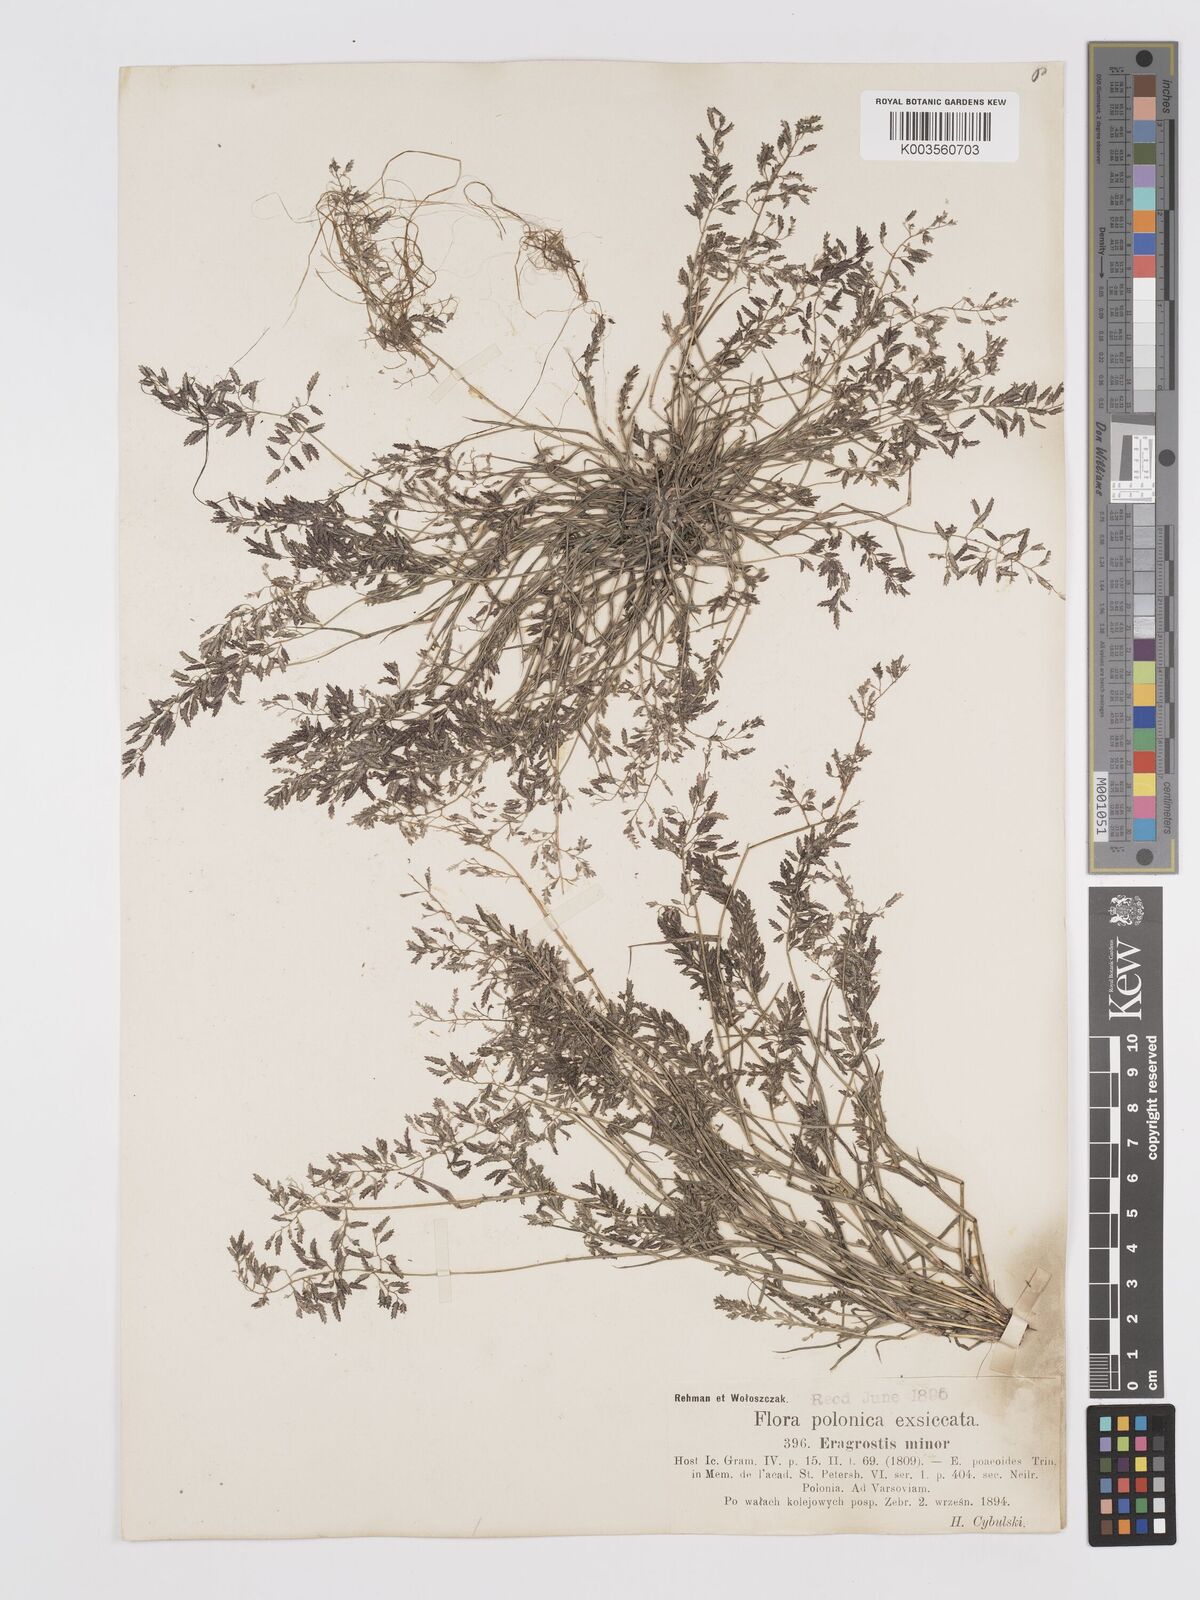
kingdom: Plantae
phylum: Tracheophyta
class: Liliopsida
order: Poales
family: Poaceae
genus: Eragrostis
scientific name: Eragrostis minor
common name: Small love-grass
